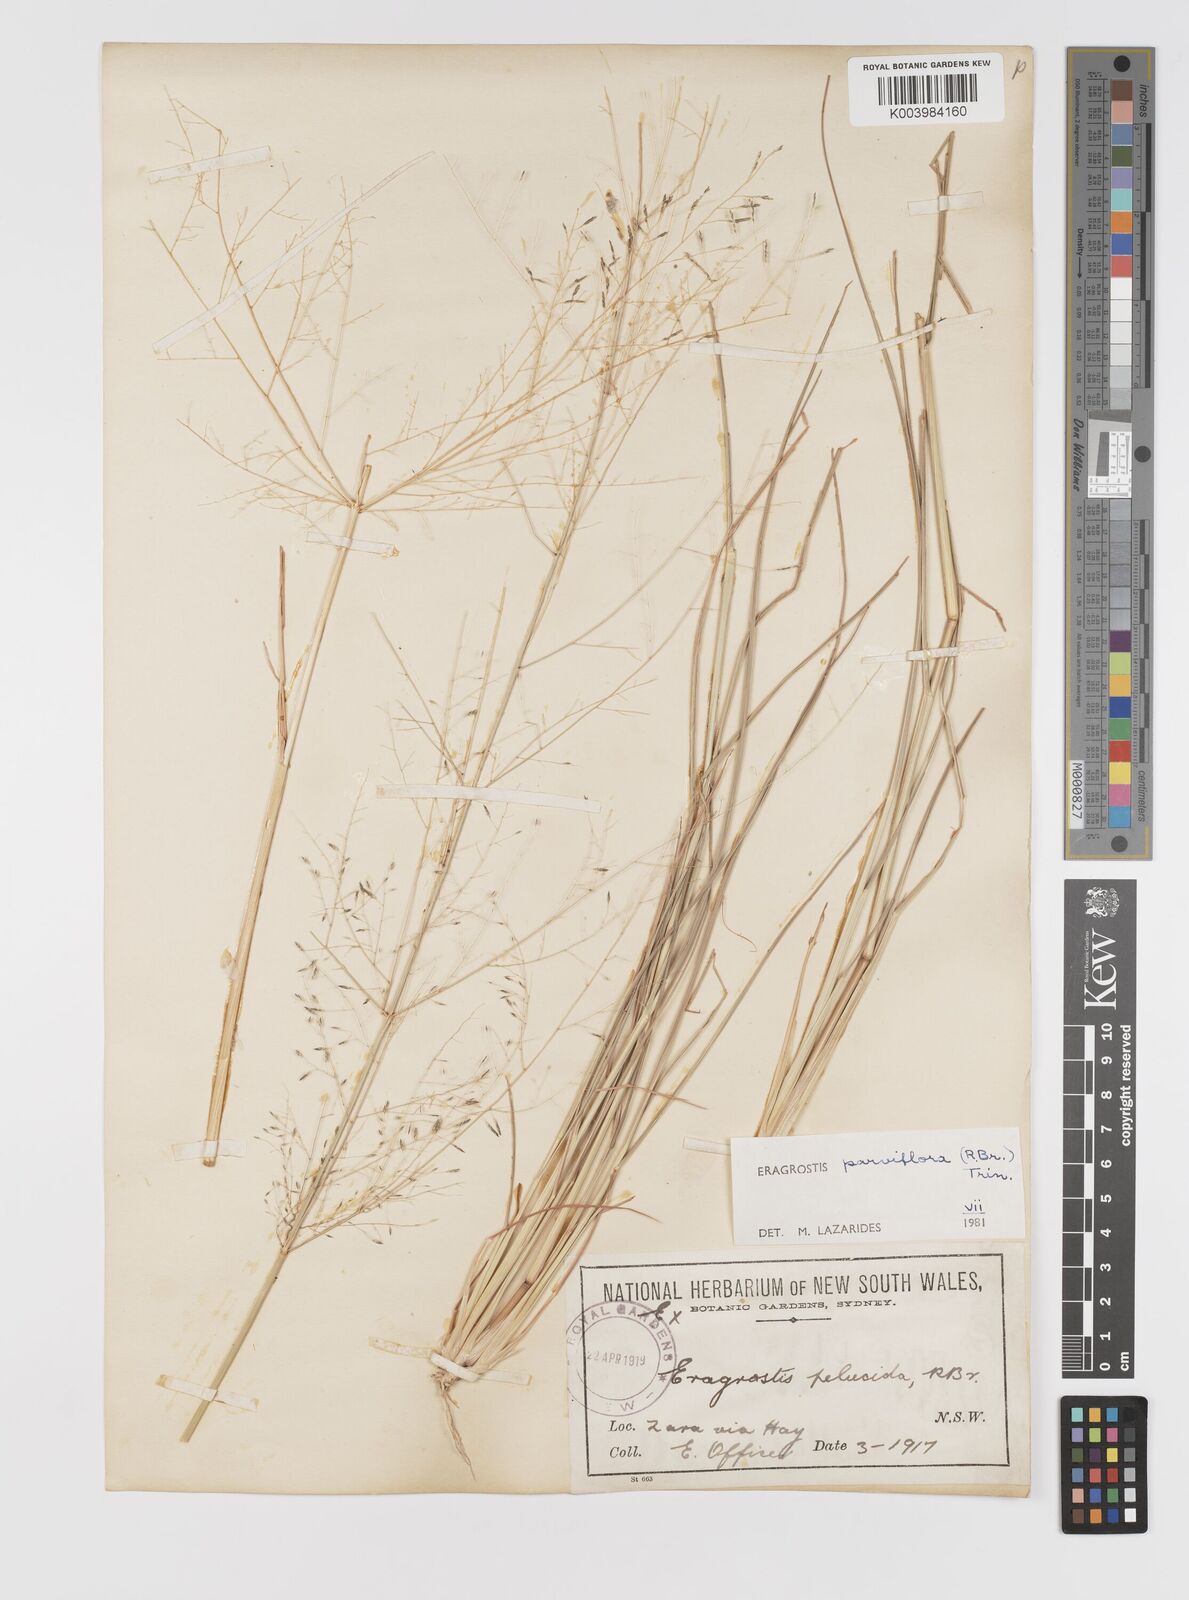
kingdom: Plantae
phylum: Tracheophyta
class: Liliopsida
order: Poales
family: Poaceae
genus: Eragrostis
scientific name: Eragrostis parviflora
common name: Weeping love-grass
